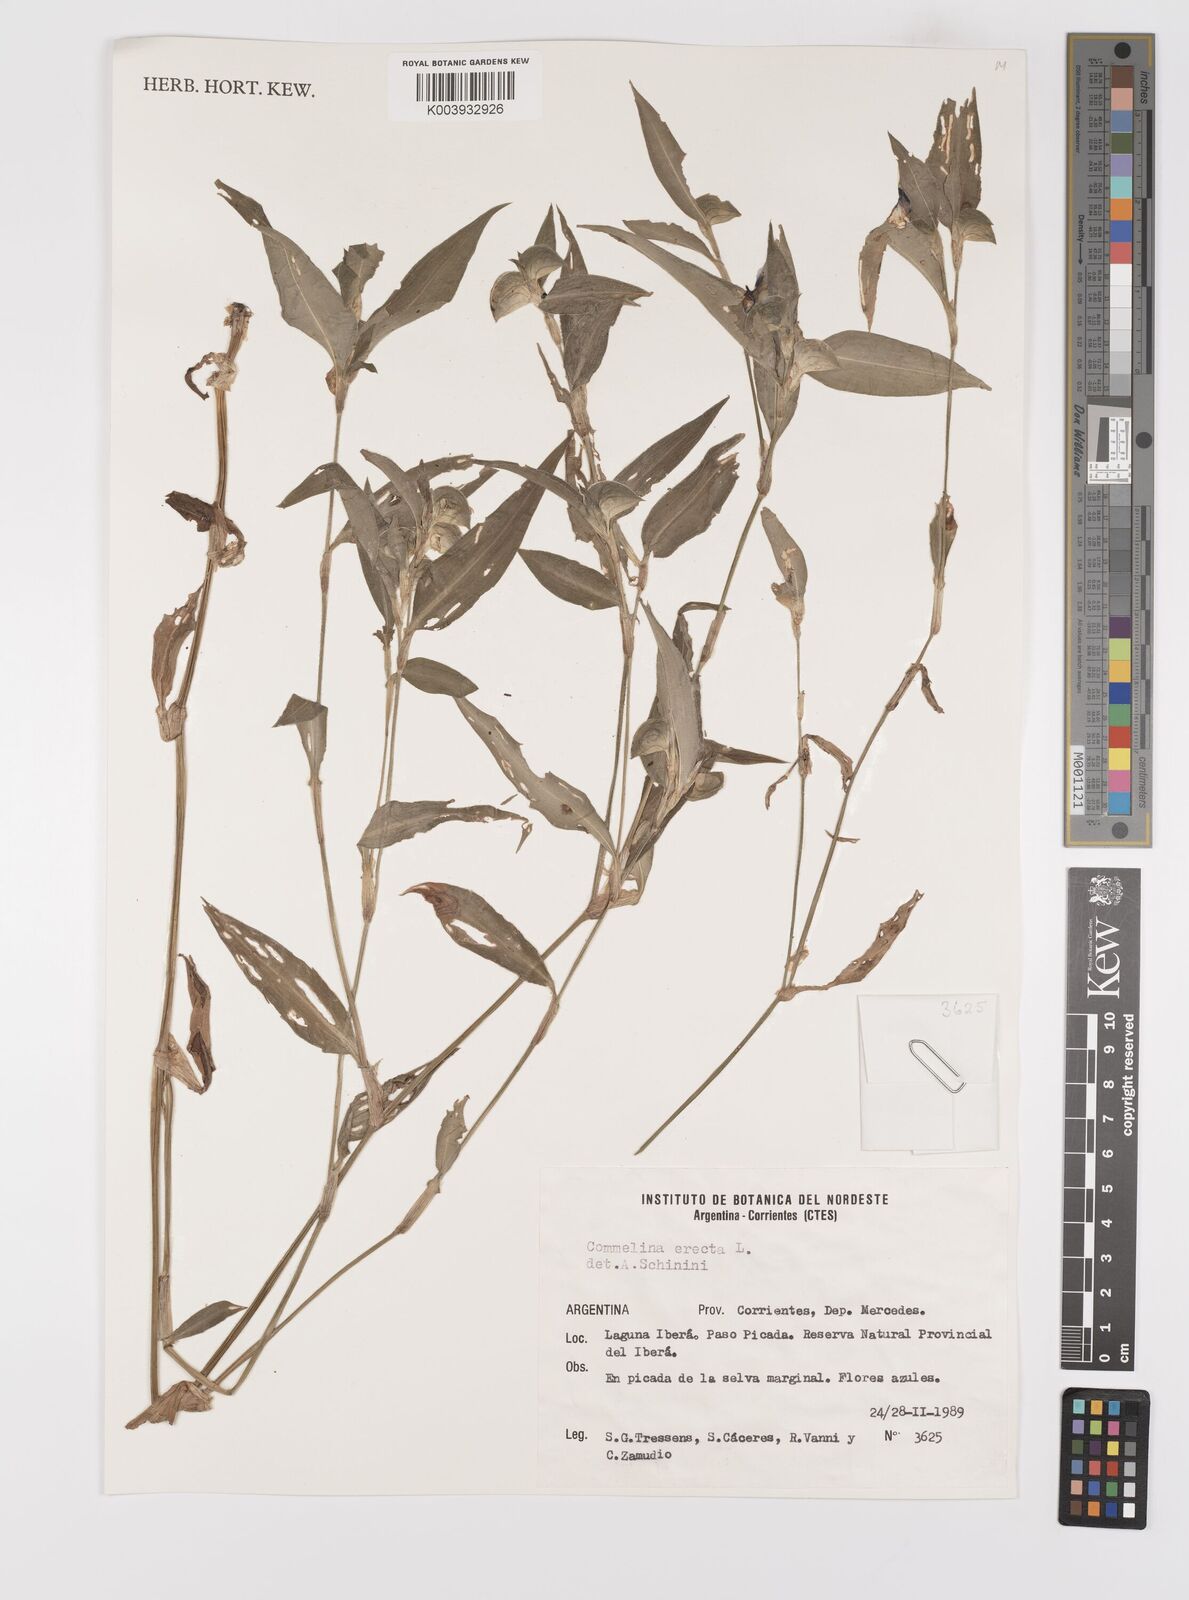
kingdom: Plantae
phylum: Tracheophyta
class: Liliopsida
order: Commelinales
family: Commelinaceae
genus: Commelina
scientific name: Commelina erecta
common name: Blousel blommetjie
